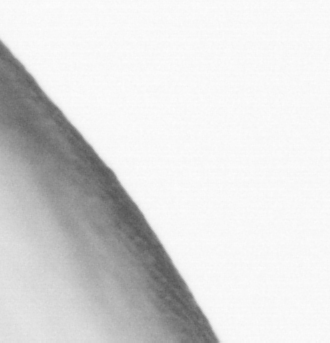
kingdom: Animalia
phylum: Chordata
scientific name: Chordata
